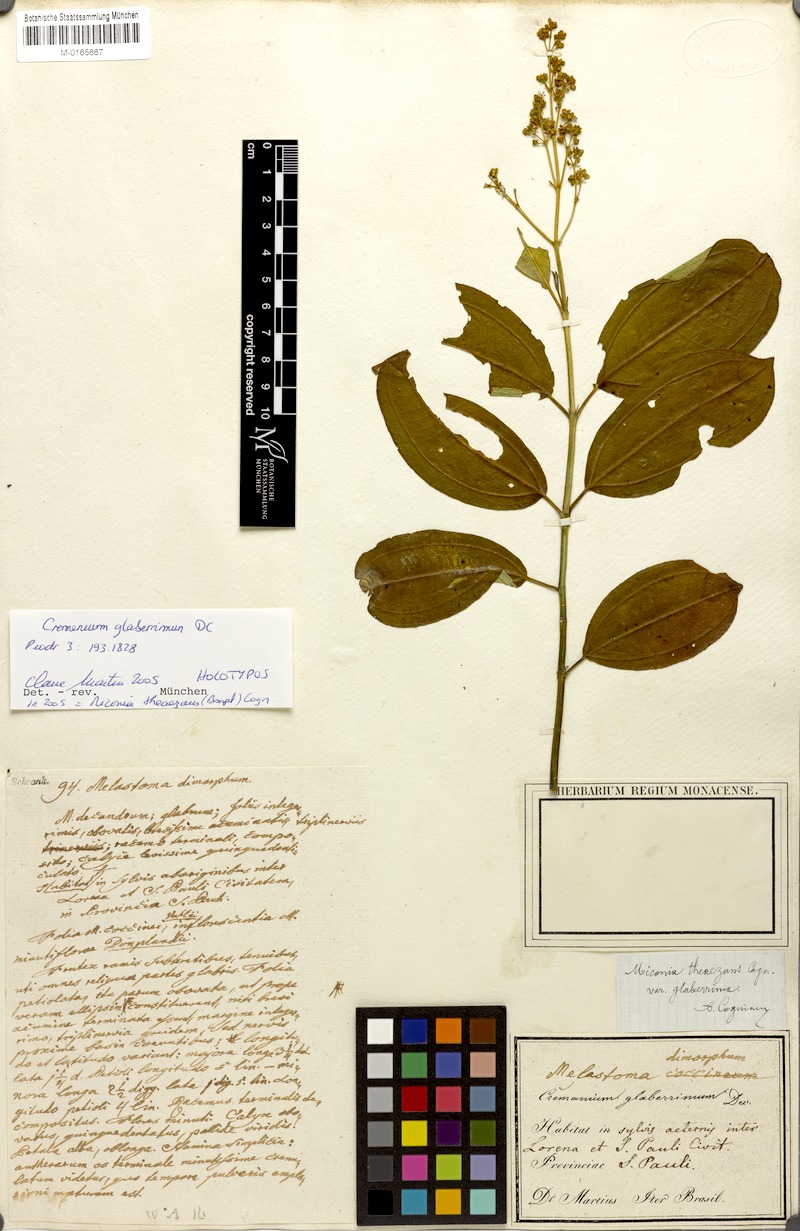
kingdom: Plantae
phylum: Tracheophyta
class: Magnoliopsida
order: Myrtales
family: Melastomataceae
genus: Miconia
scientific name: Miconia theazans
